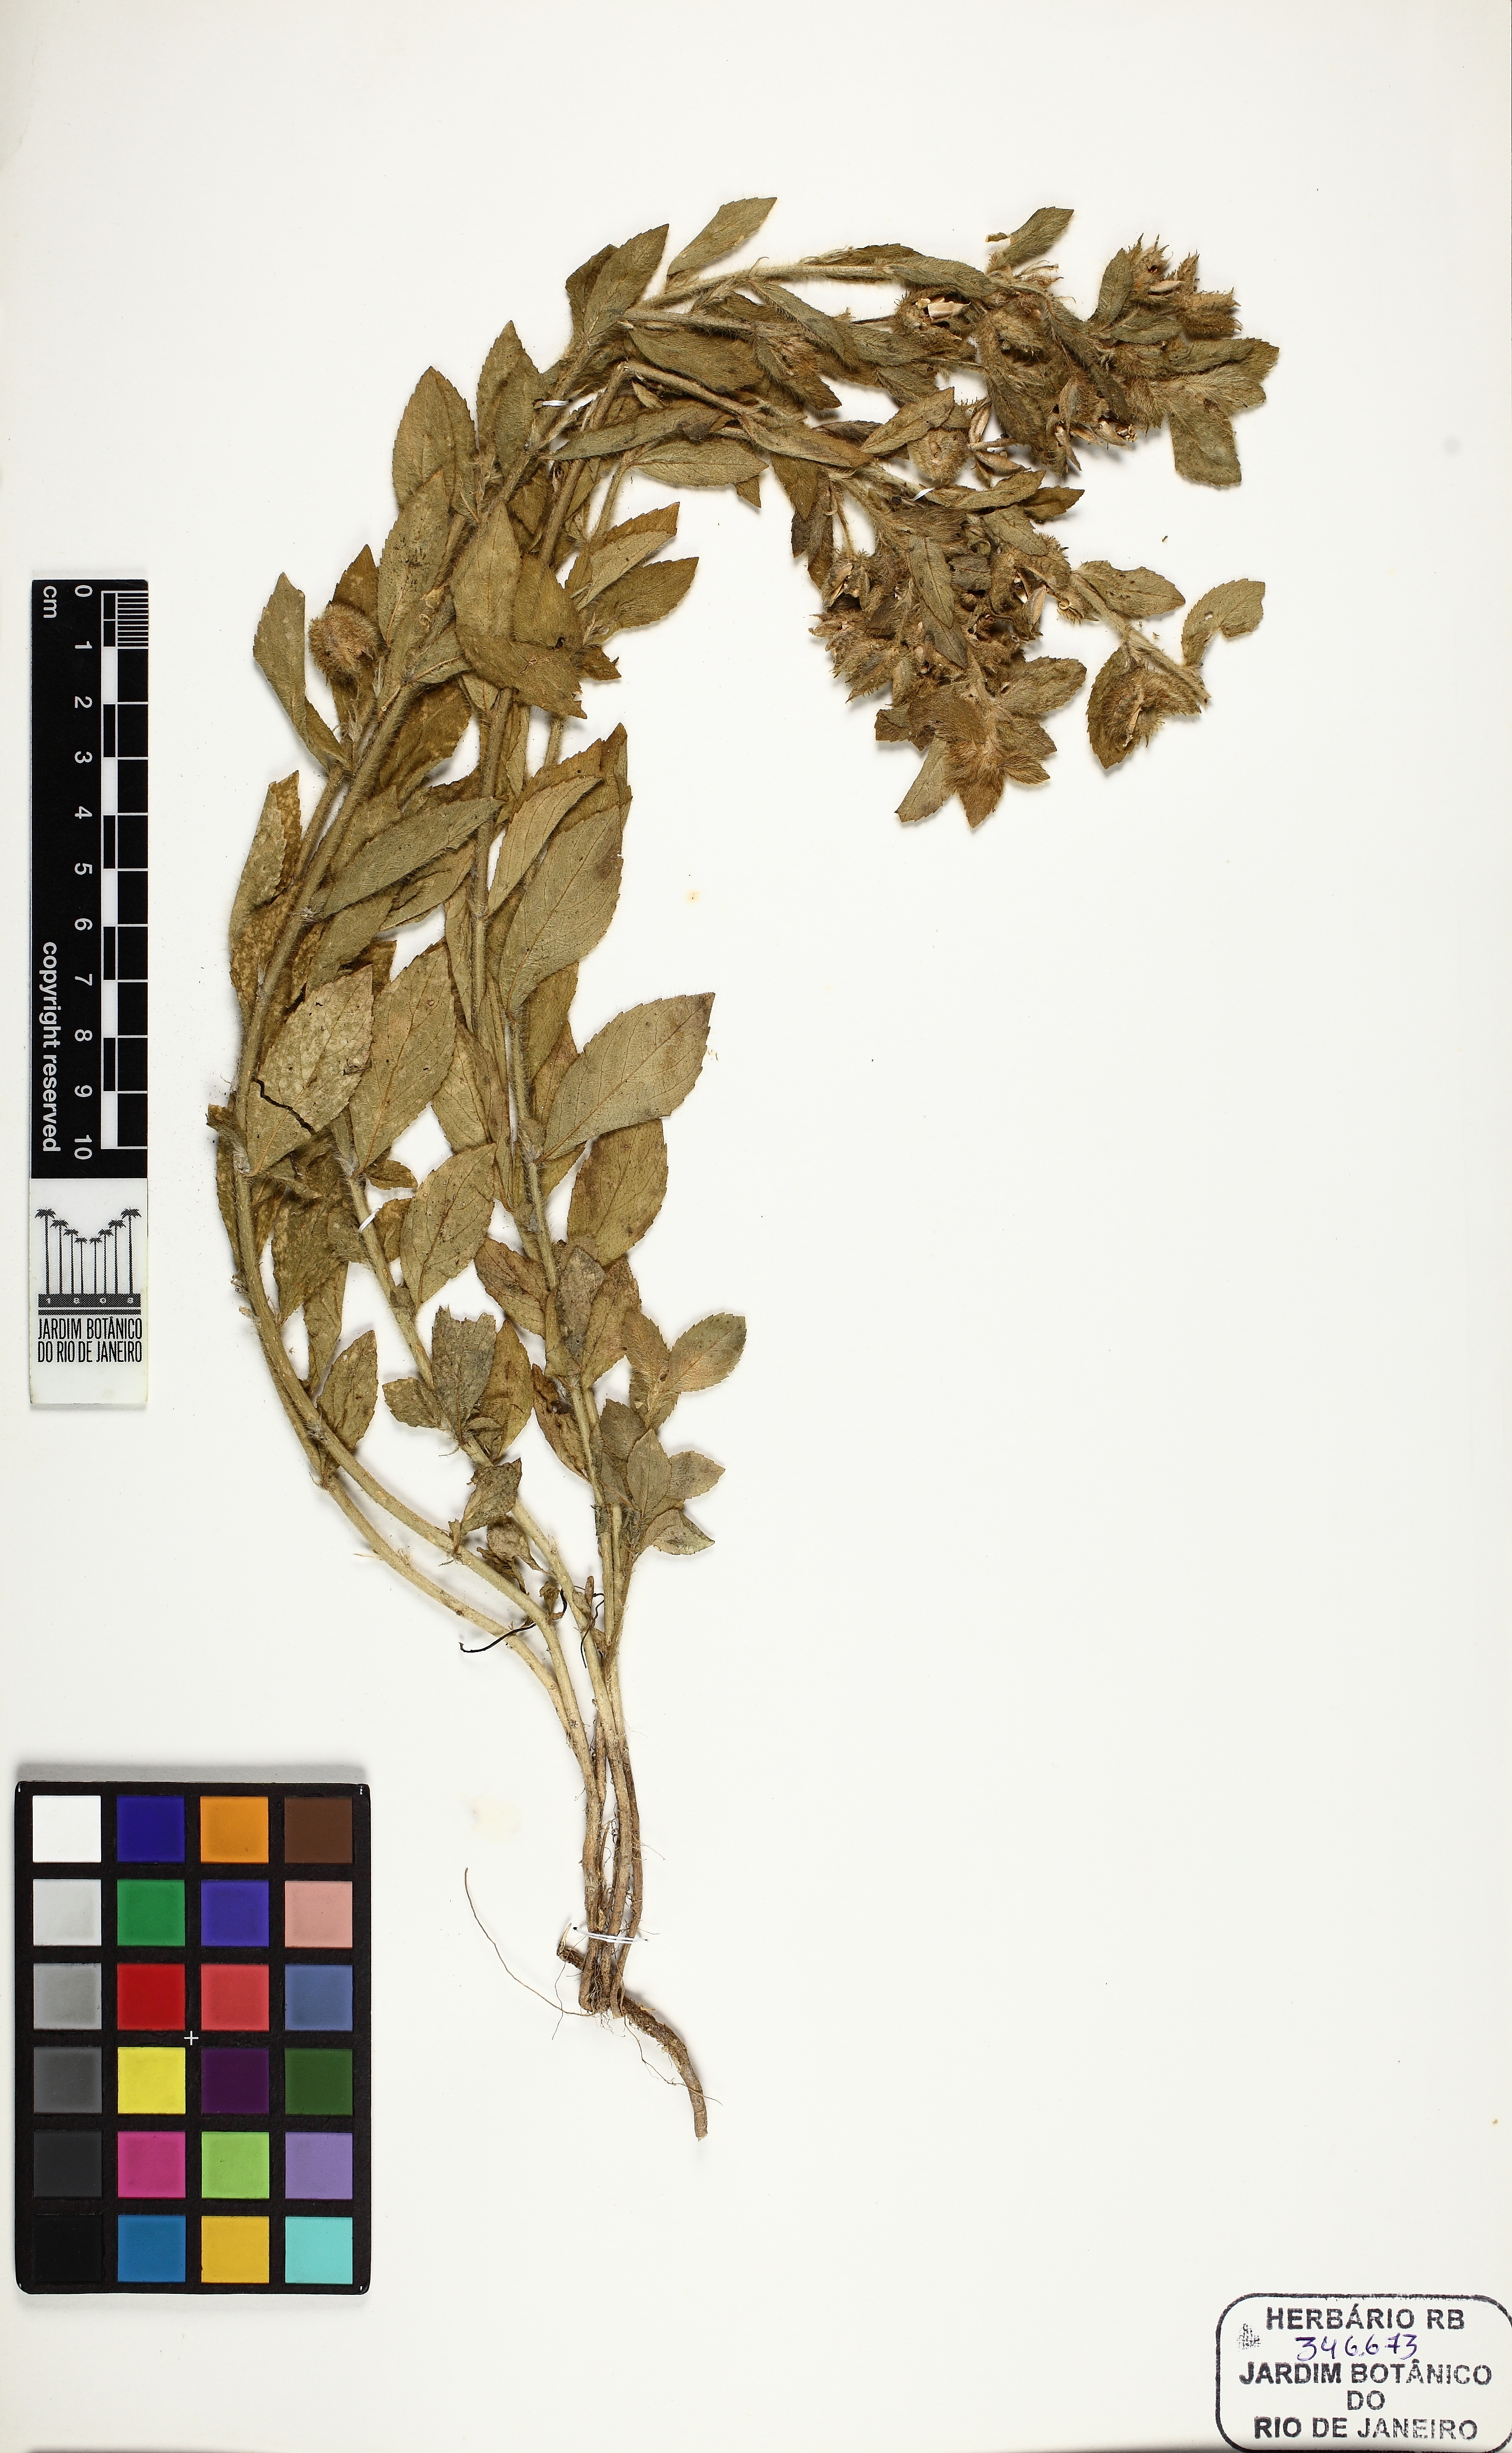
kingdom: Plantae
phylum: Tracheophyta
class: Magnoliopsida
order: Malpighiales
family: Violaceae
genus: Pombalia
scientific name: Pombalia calceolaria
